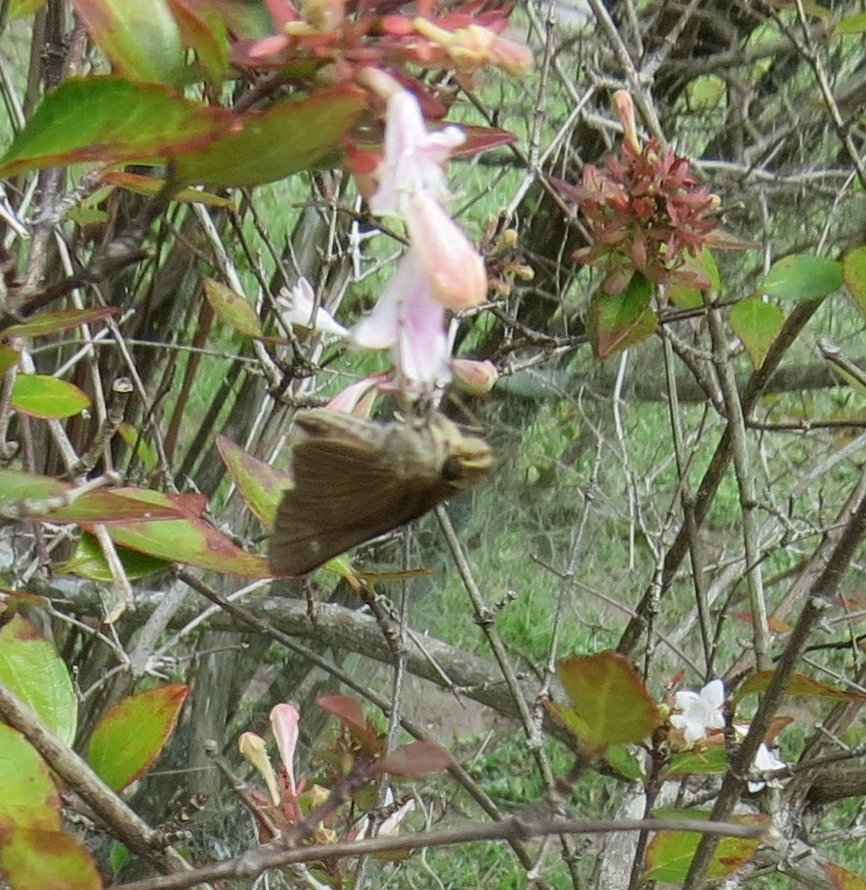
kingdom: Animalia
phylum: Arthropoda
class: Insecta
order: Lepidoptera
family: Hesperiidae
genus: Panoquina
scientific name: Panoquina ocola
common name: Ocola Skipper
